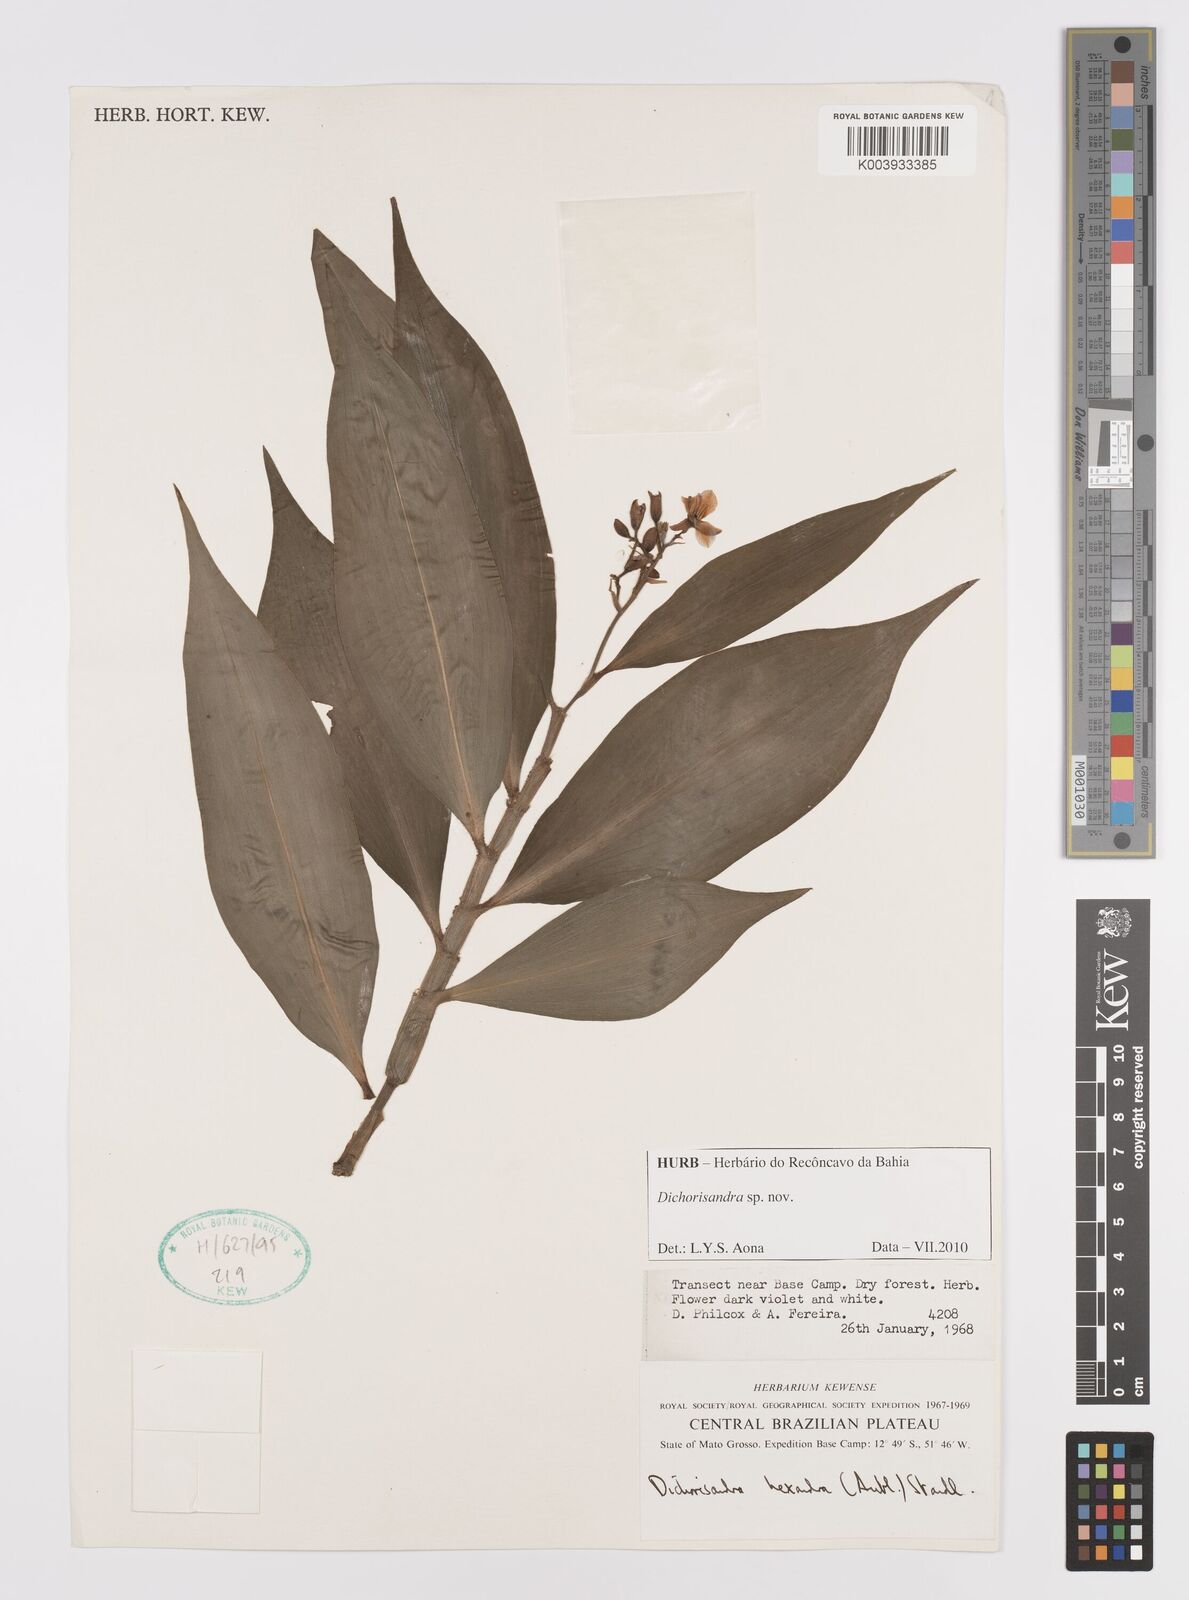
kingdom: Plantae
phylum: Tracheophyta
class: Liliopsida
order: Commelinales
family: Commelinaceae
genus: Dichorisandra
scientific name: Dichorisandra
